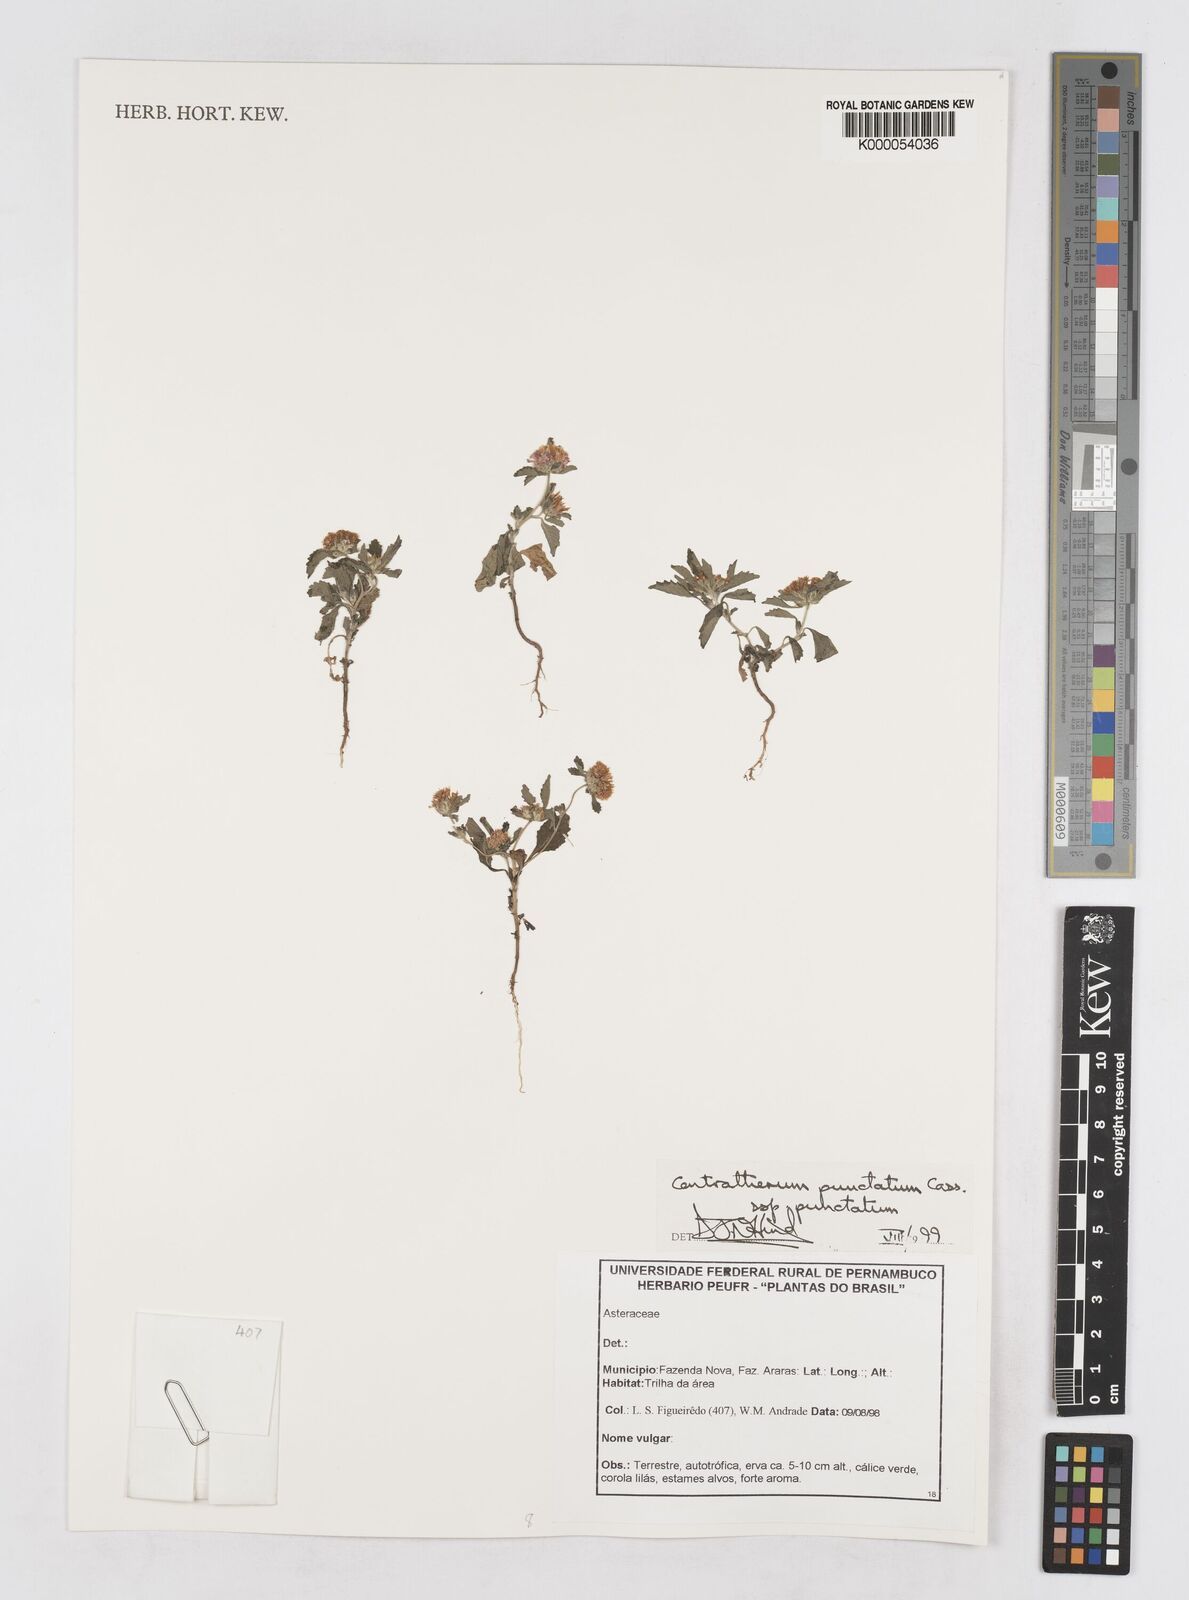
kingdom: Plantae
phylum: Tracheophyta
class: Magnoliopsida
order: Asterales
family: Asteraceae
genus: Centratherum
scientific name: Centratherum punctatum
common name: Larkdaisy
